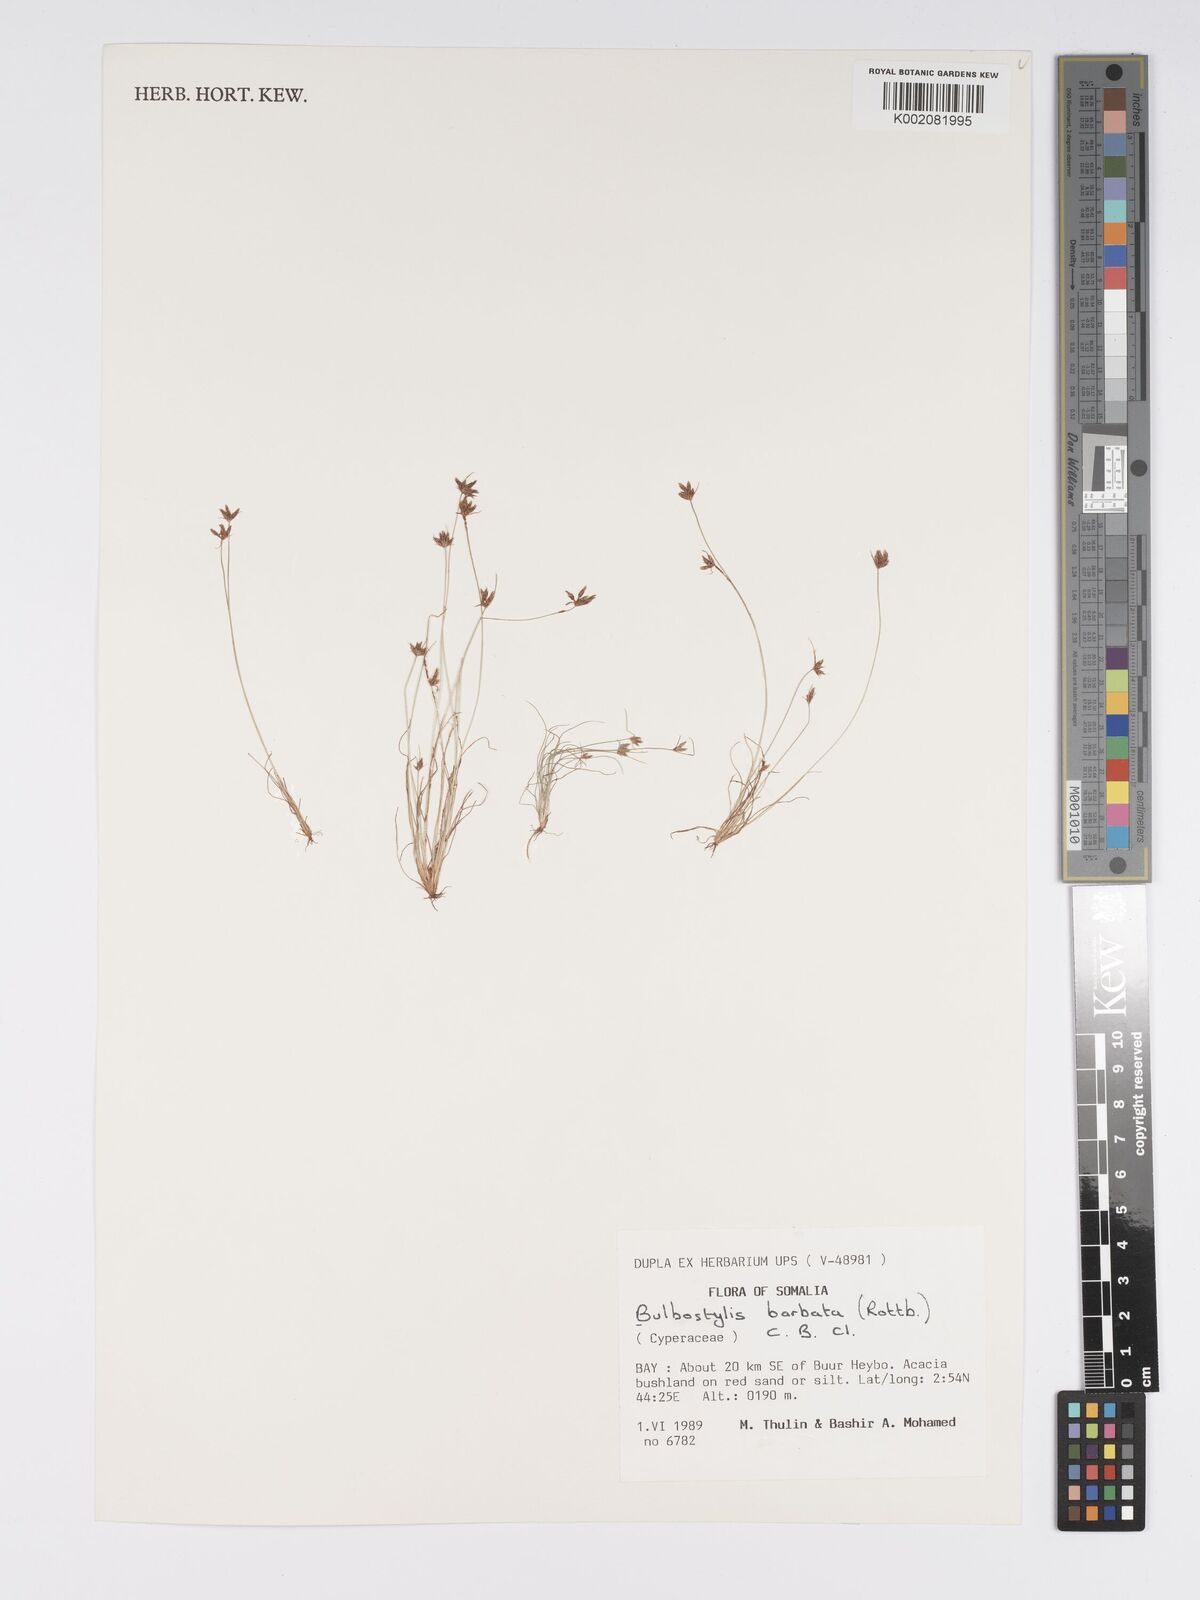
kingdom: Plantae
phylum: Tracheophyta
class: Liliopsida
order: Poales
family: Cyperaceae
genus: Bulbostylis
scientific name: Bulbostylis barbata
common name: Watergrass
